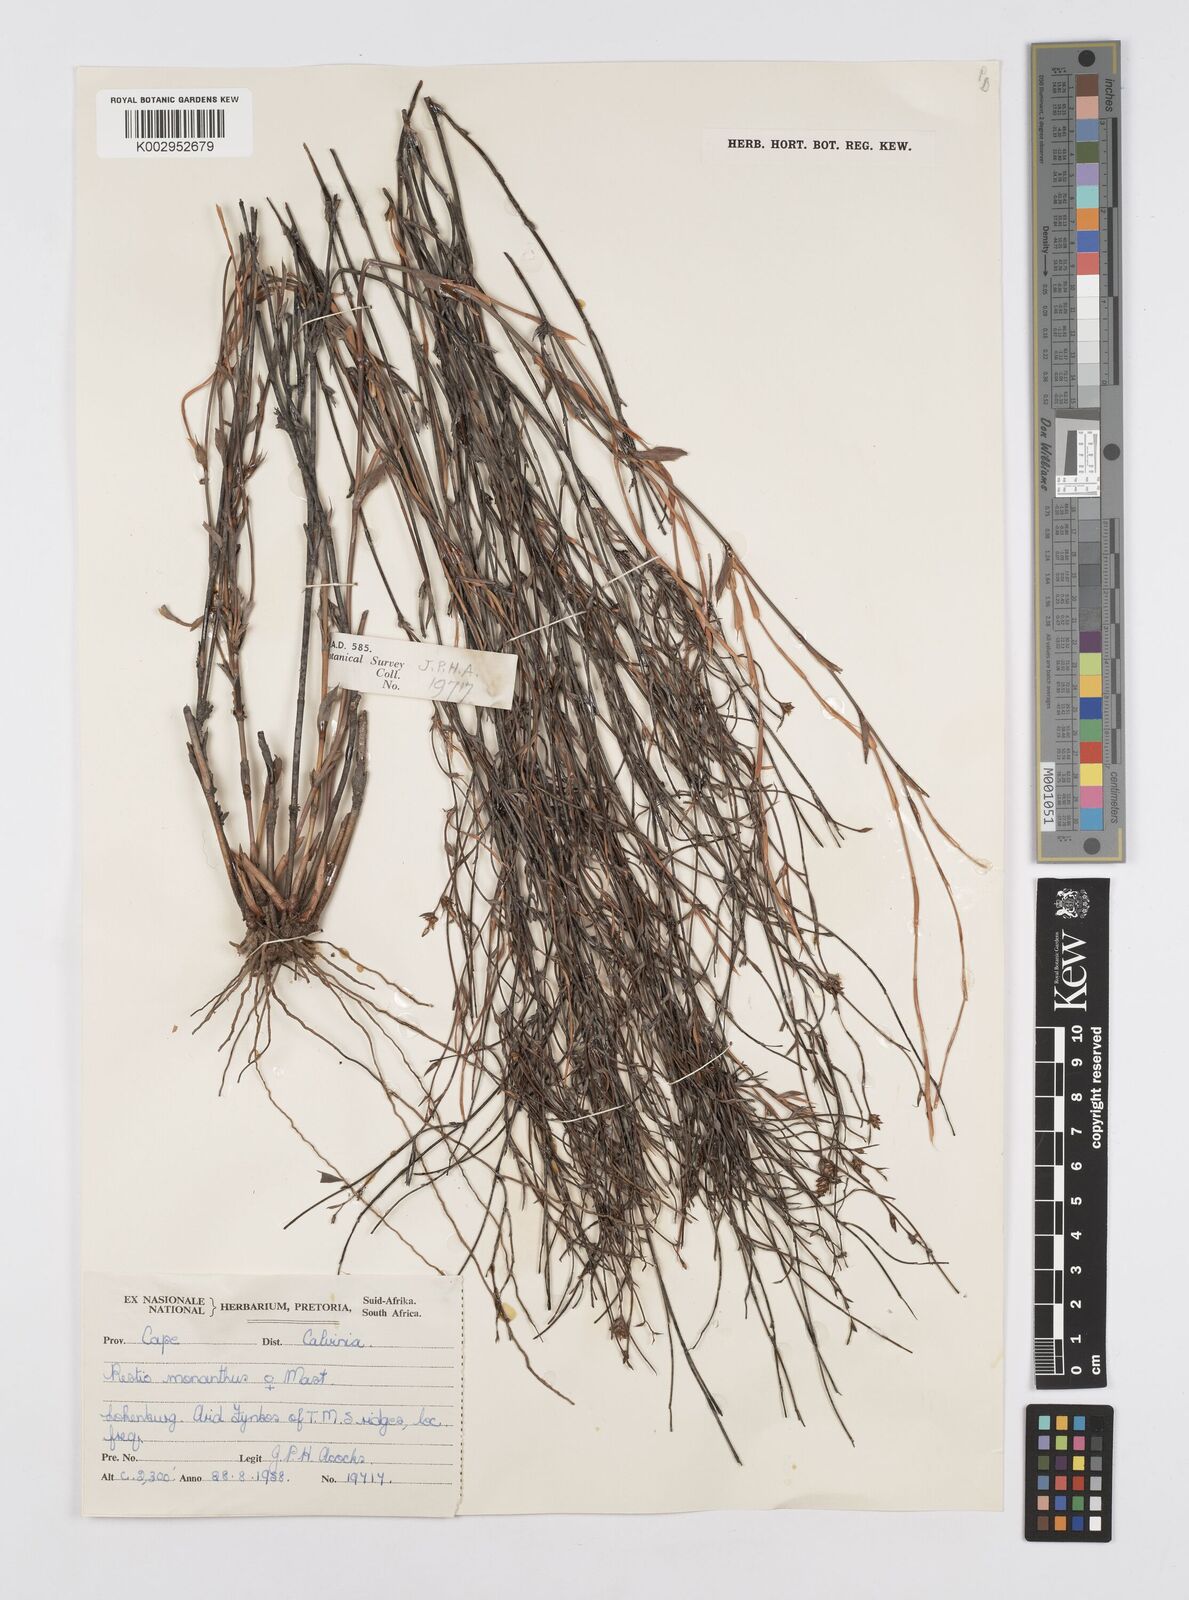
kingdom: Plantae
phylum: Tracheophyta
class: Liliopsida
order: Poales
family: Restionaceae
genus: Restio
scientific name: Restio longiaristatus
